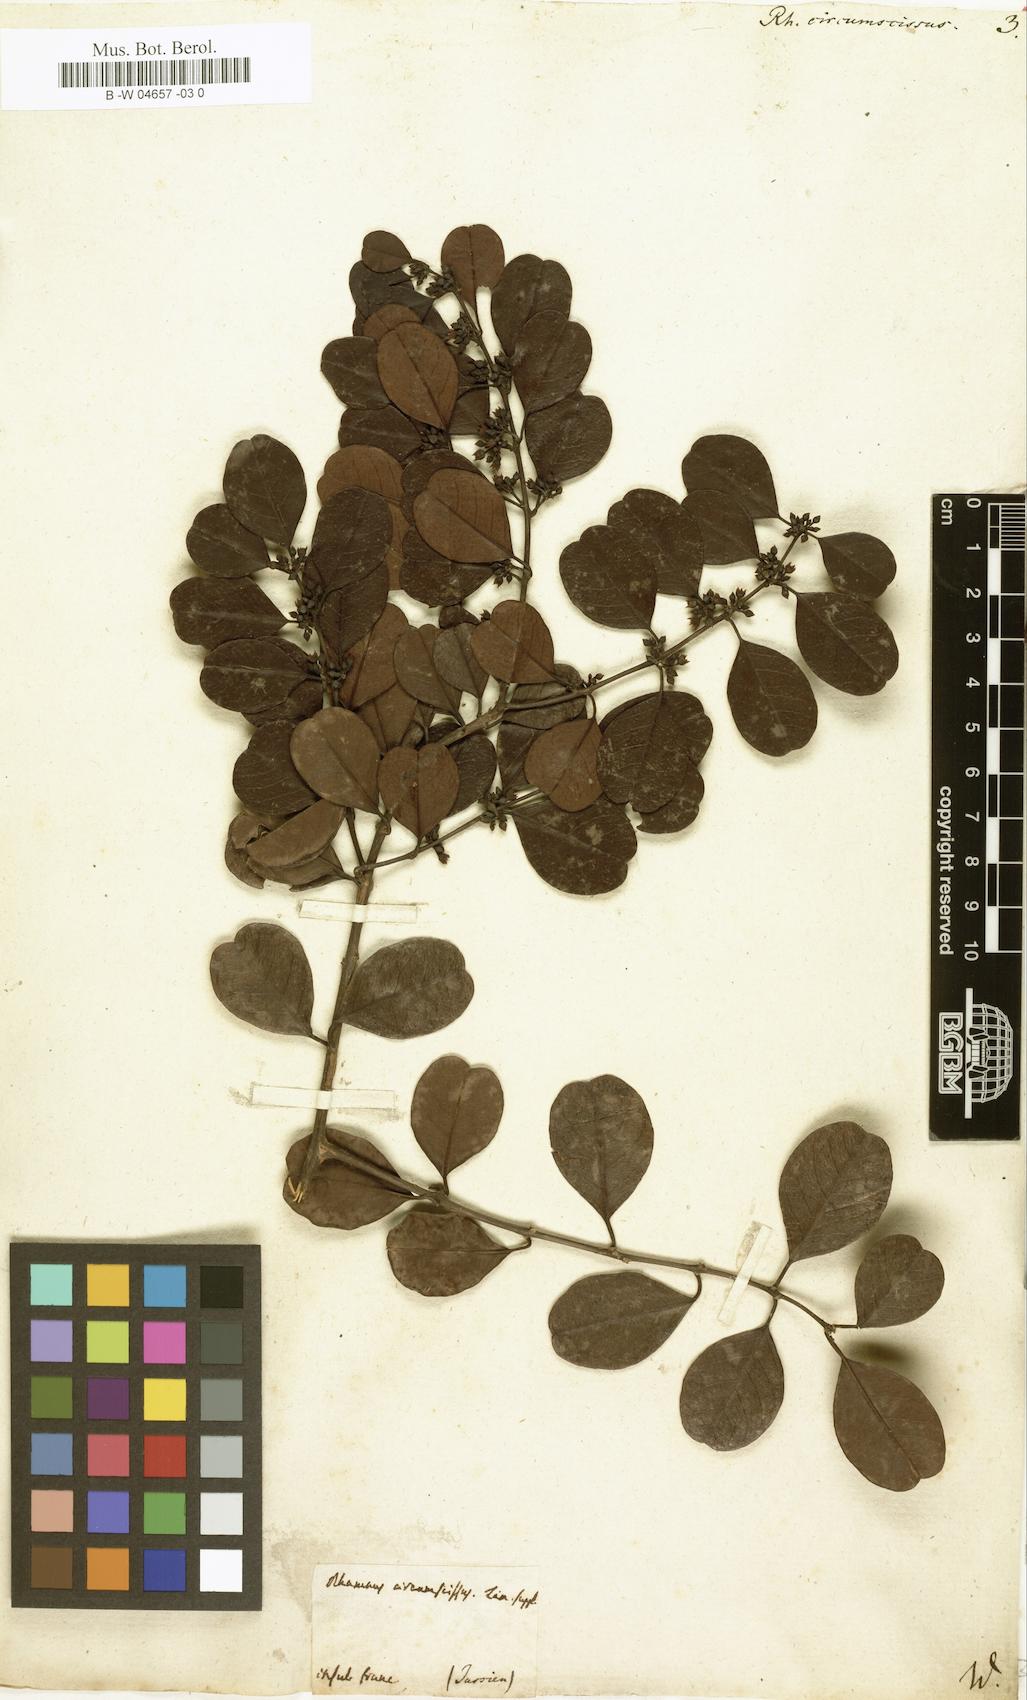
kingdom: Plantae
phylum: Tracheophyta
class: Magnoliopsida
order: Rosales
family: Rhamnaceae
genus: Scutia
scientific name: Scutia myrtina
